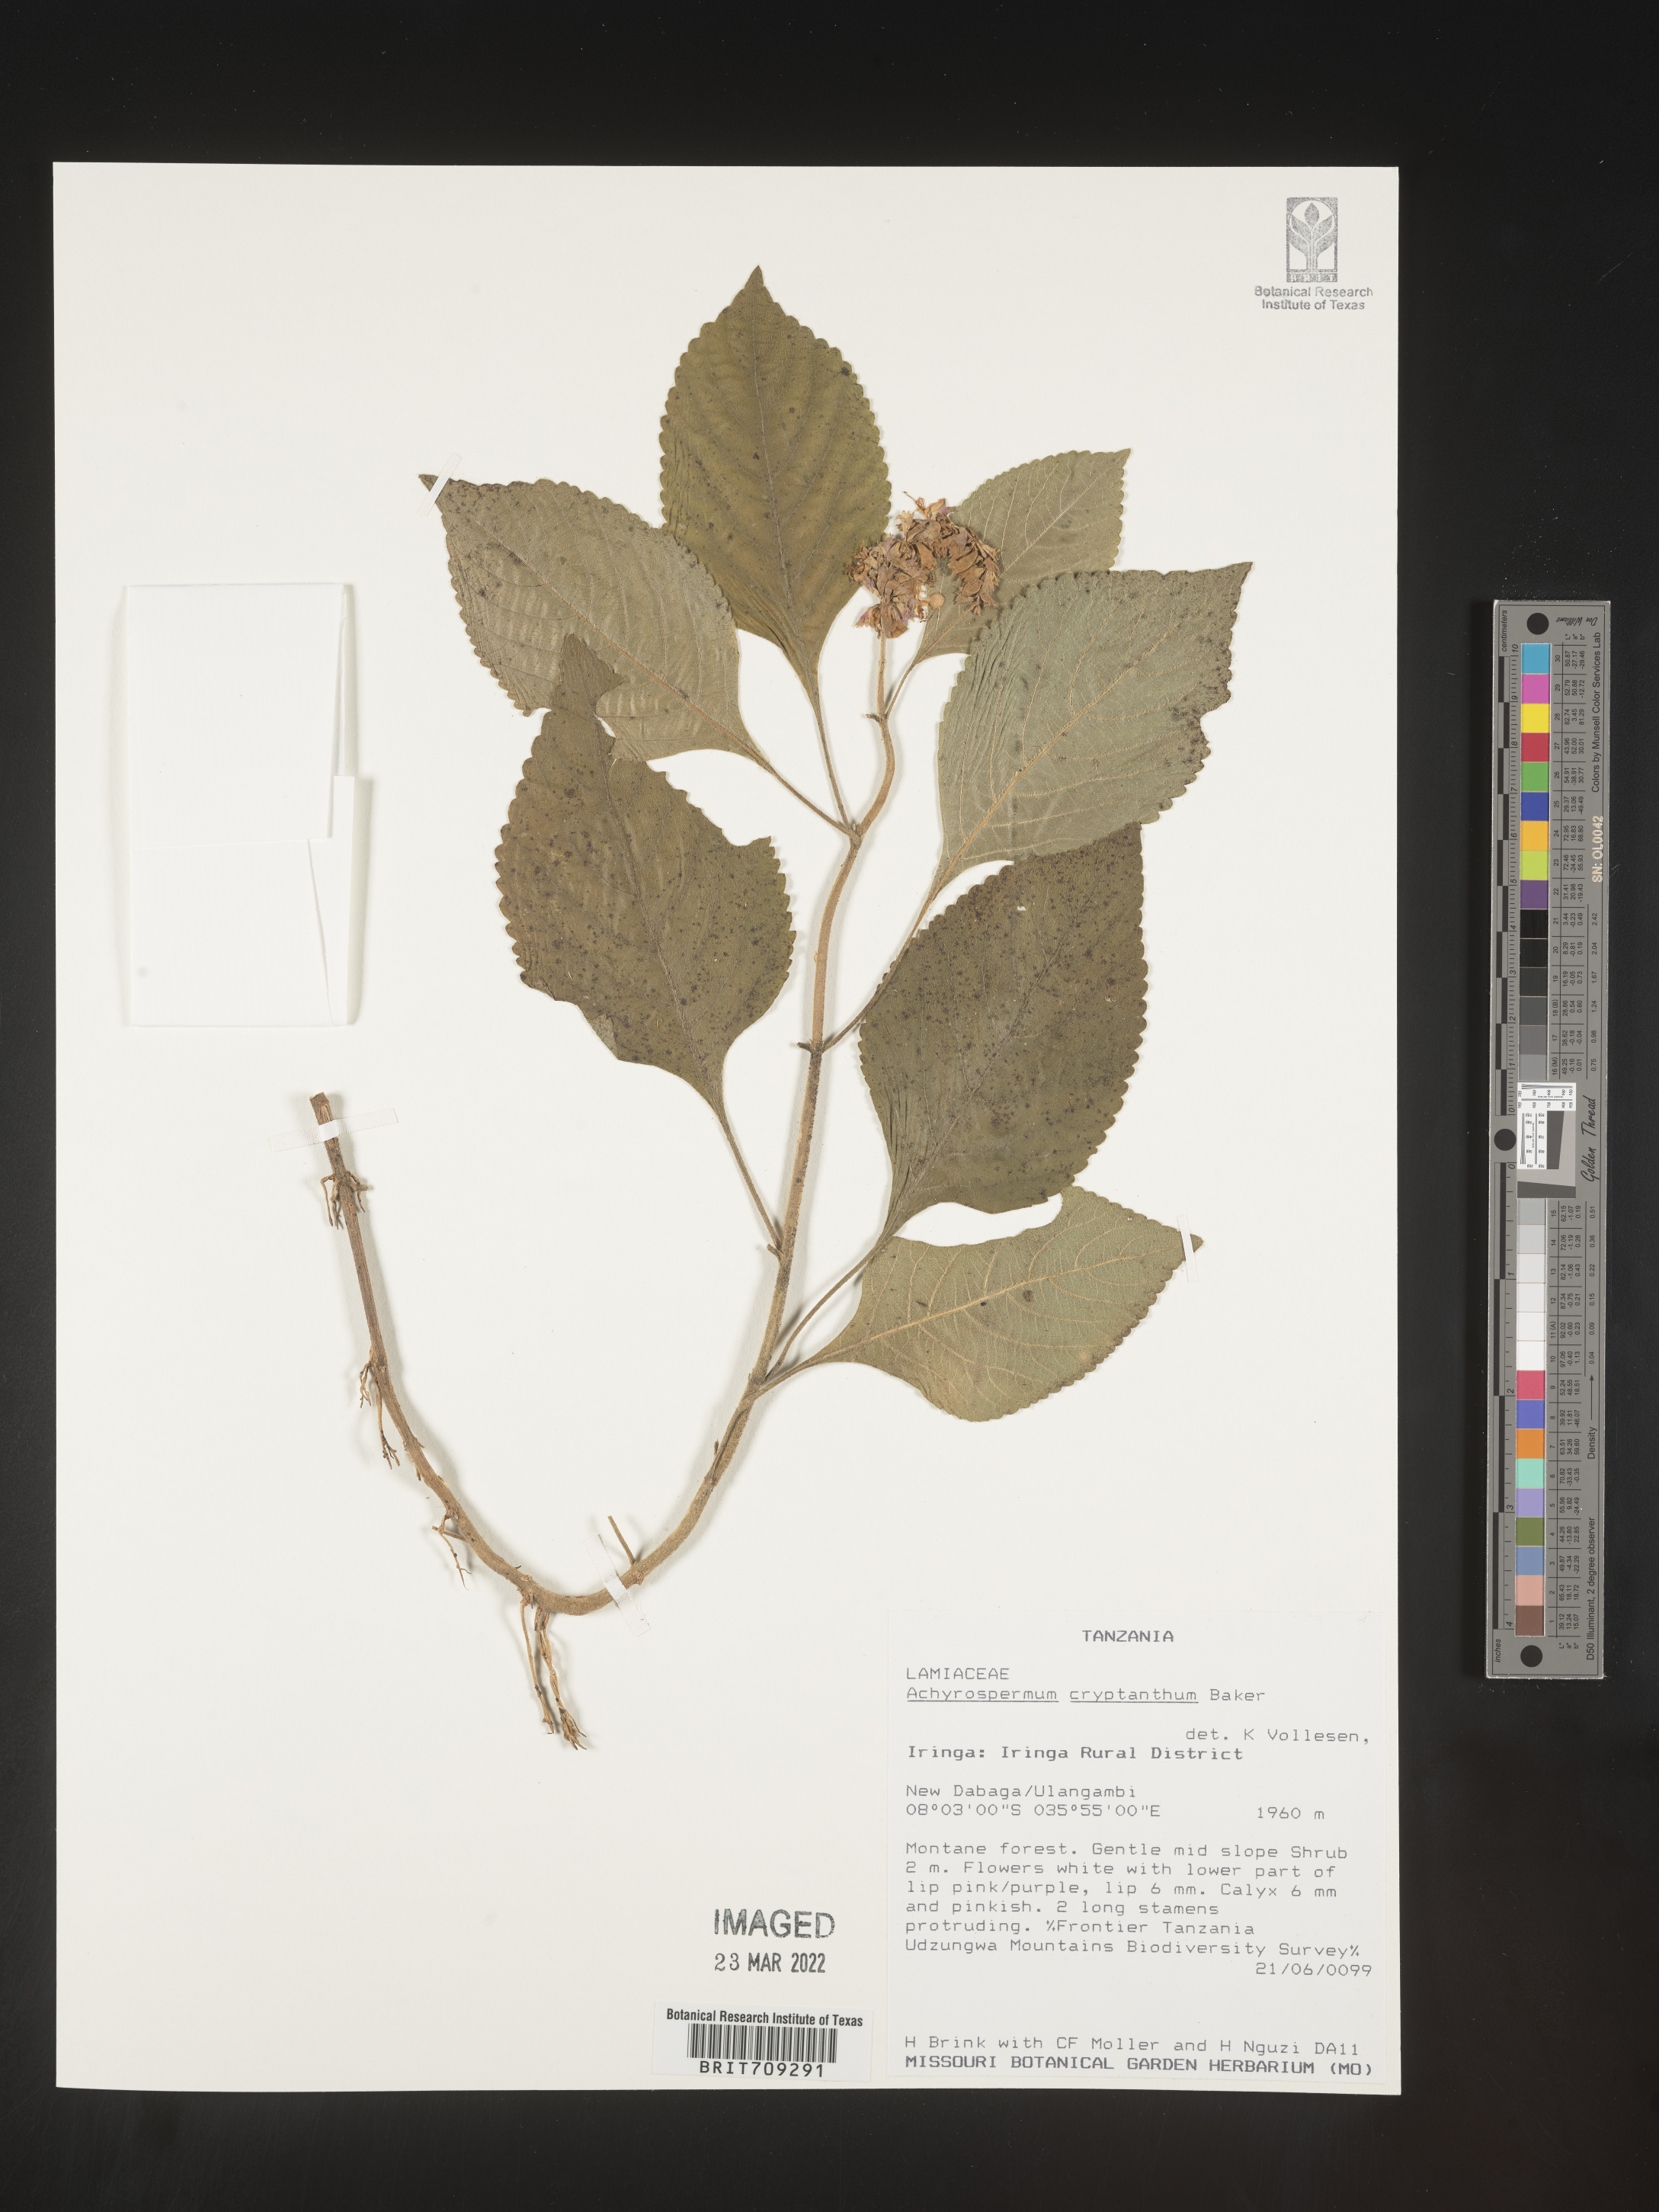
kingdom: Plantae
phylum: Tracheophyta
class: Magnoliopsida
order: Lamiales
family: Lamiaceae
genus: Achyrospermum
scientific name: Achyrospermum
